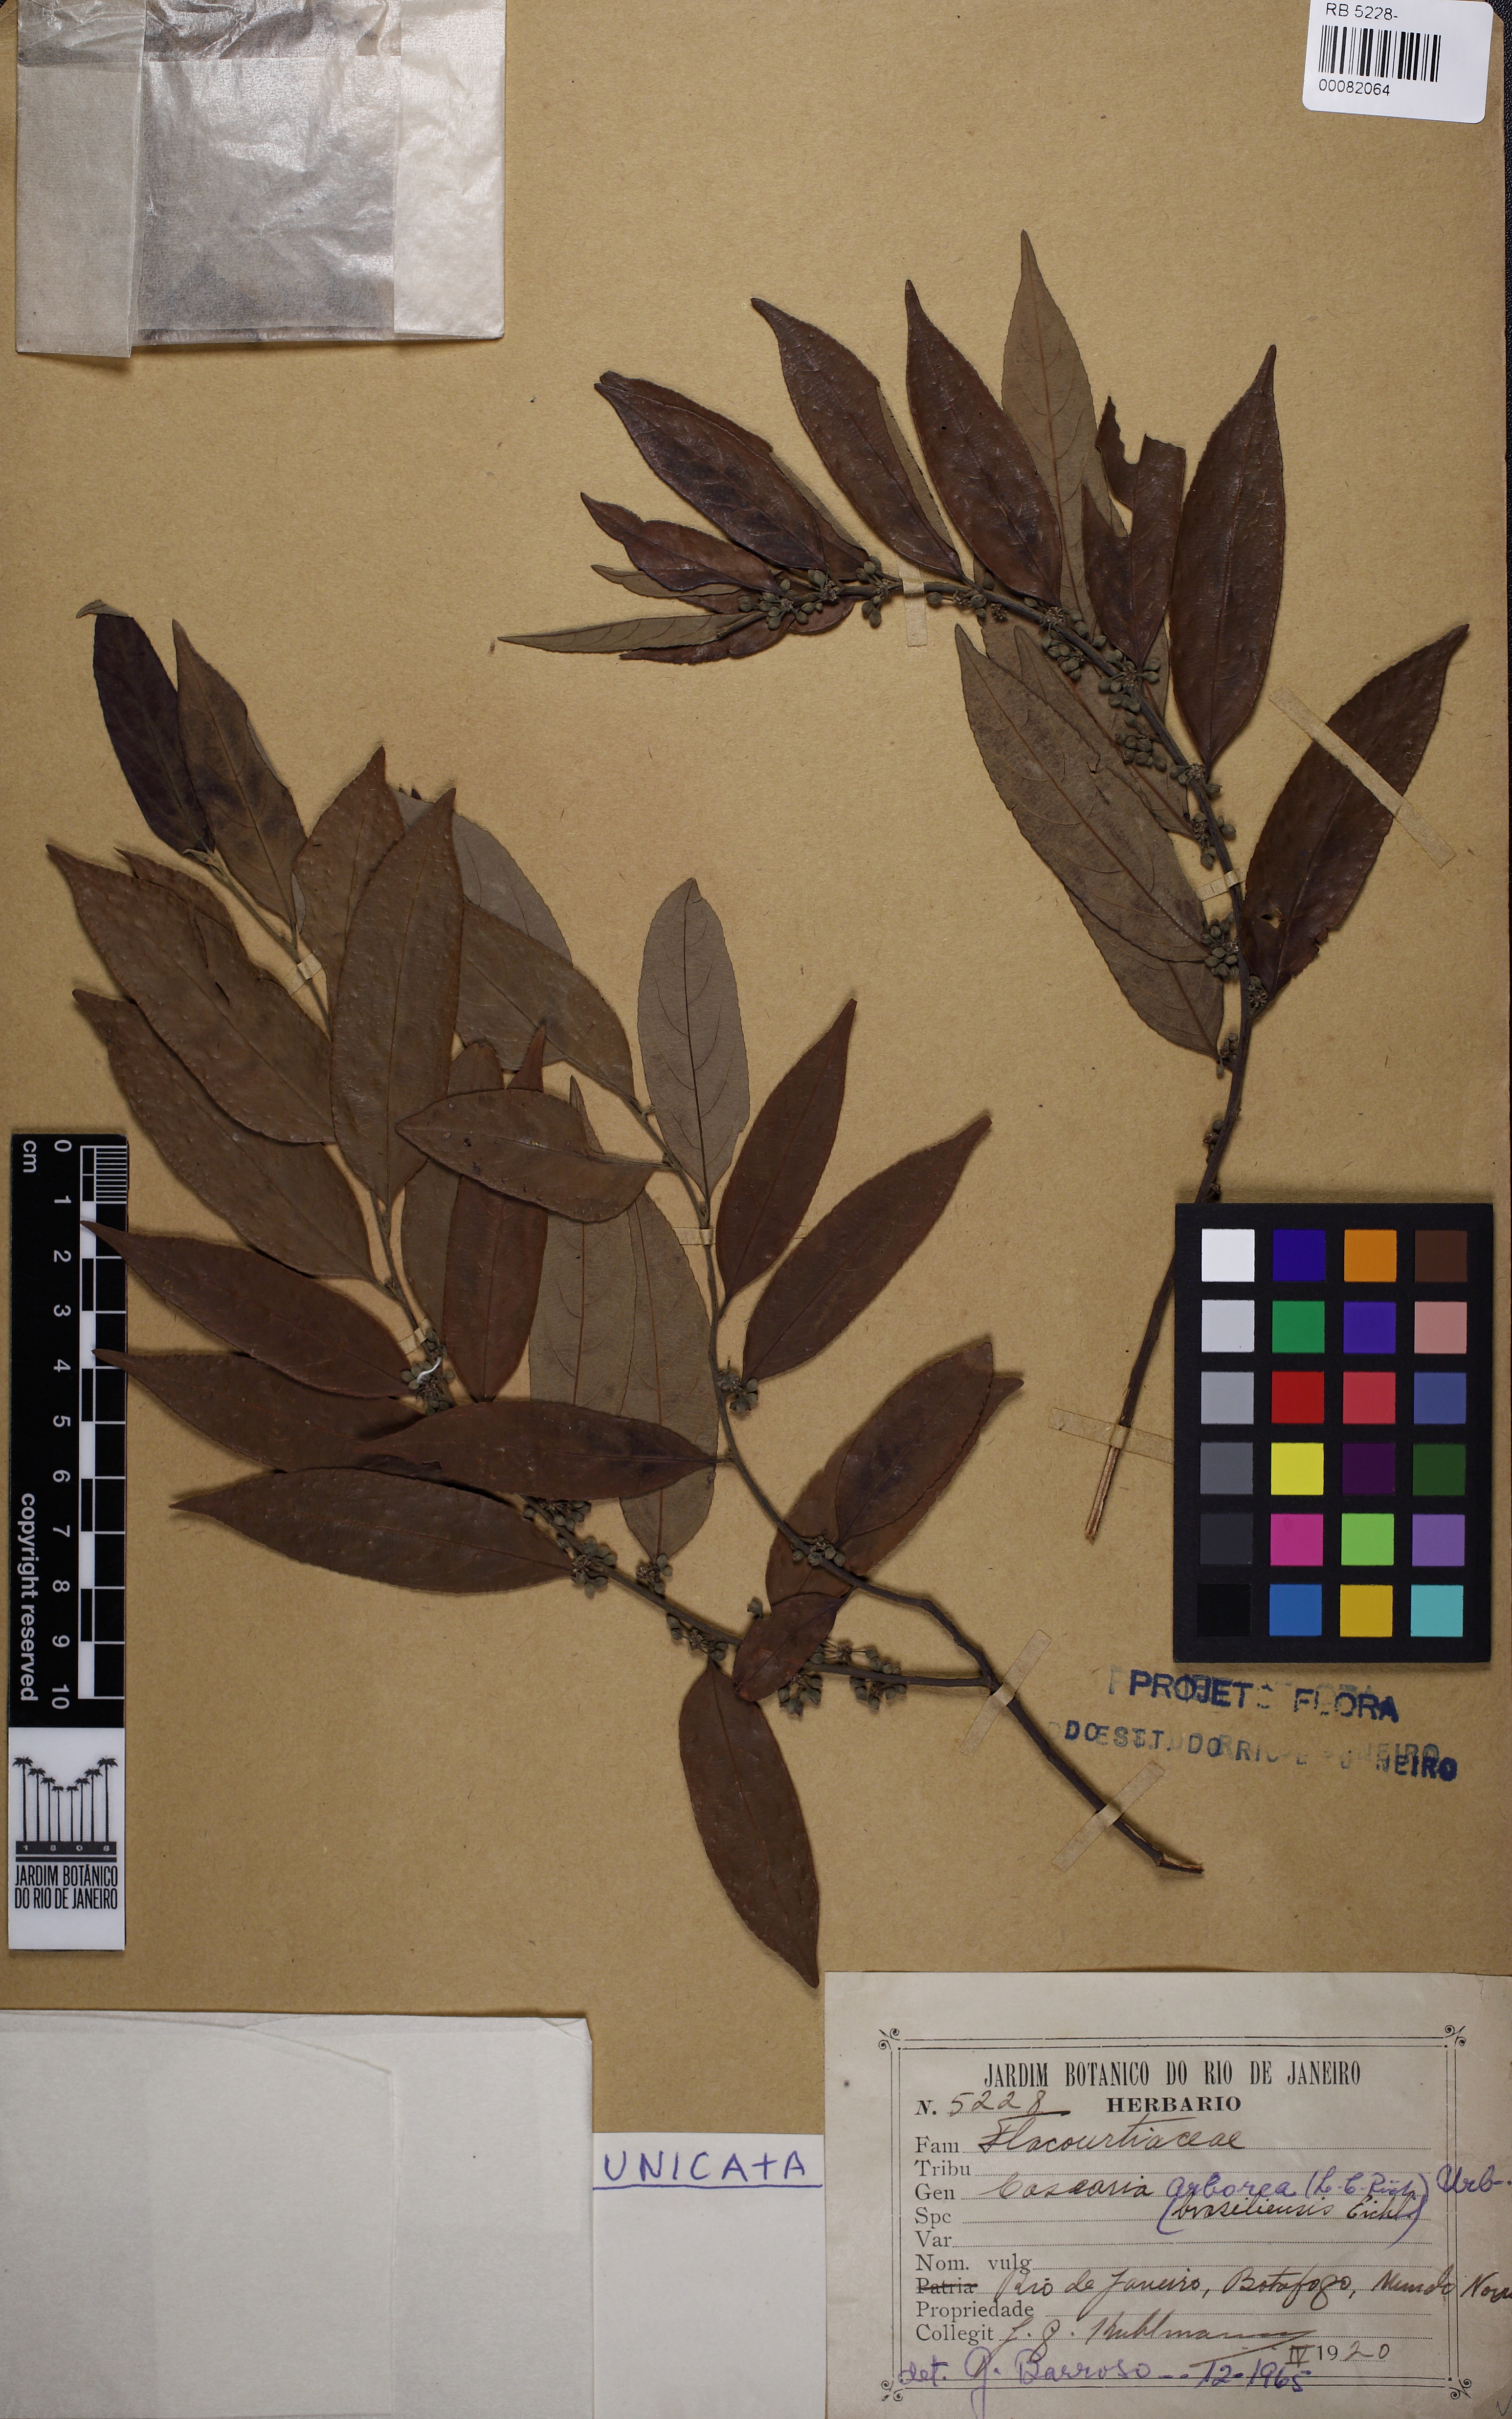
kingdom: Plantae
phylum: Tracheophyta
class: Magnoliopsida
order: Malpighiales
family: Salicaceae
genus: Casearia
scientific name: Casearia arborea
